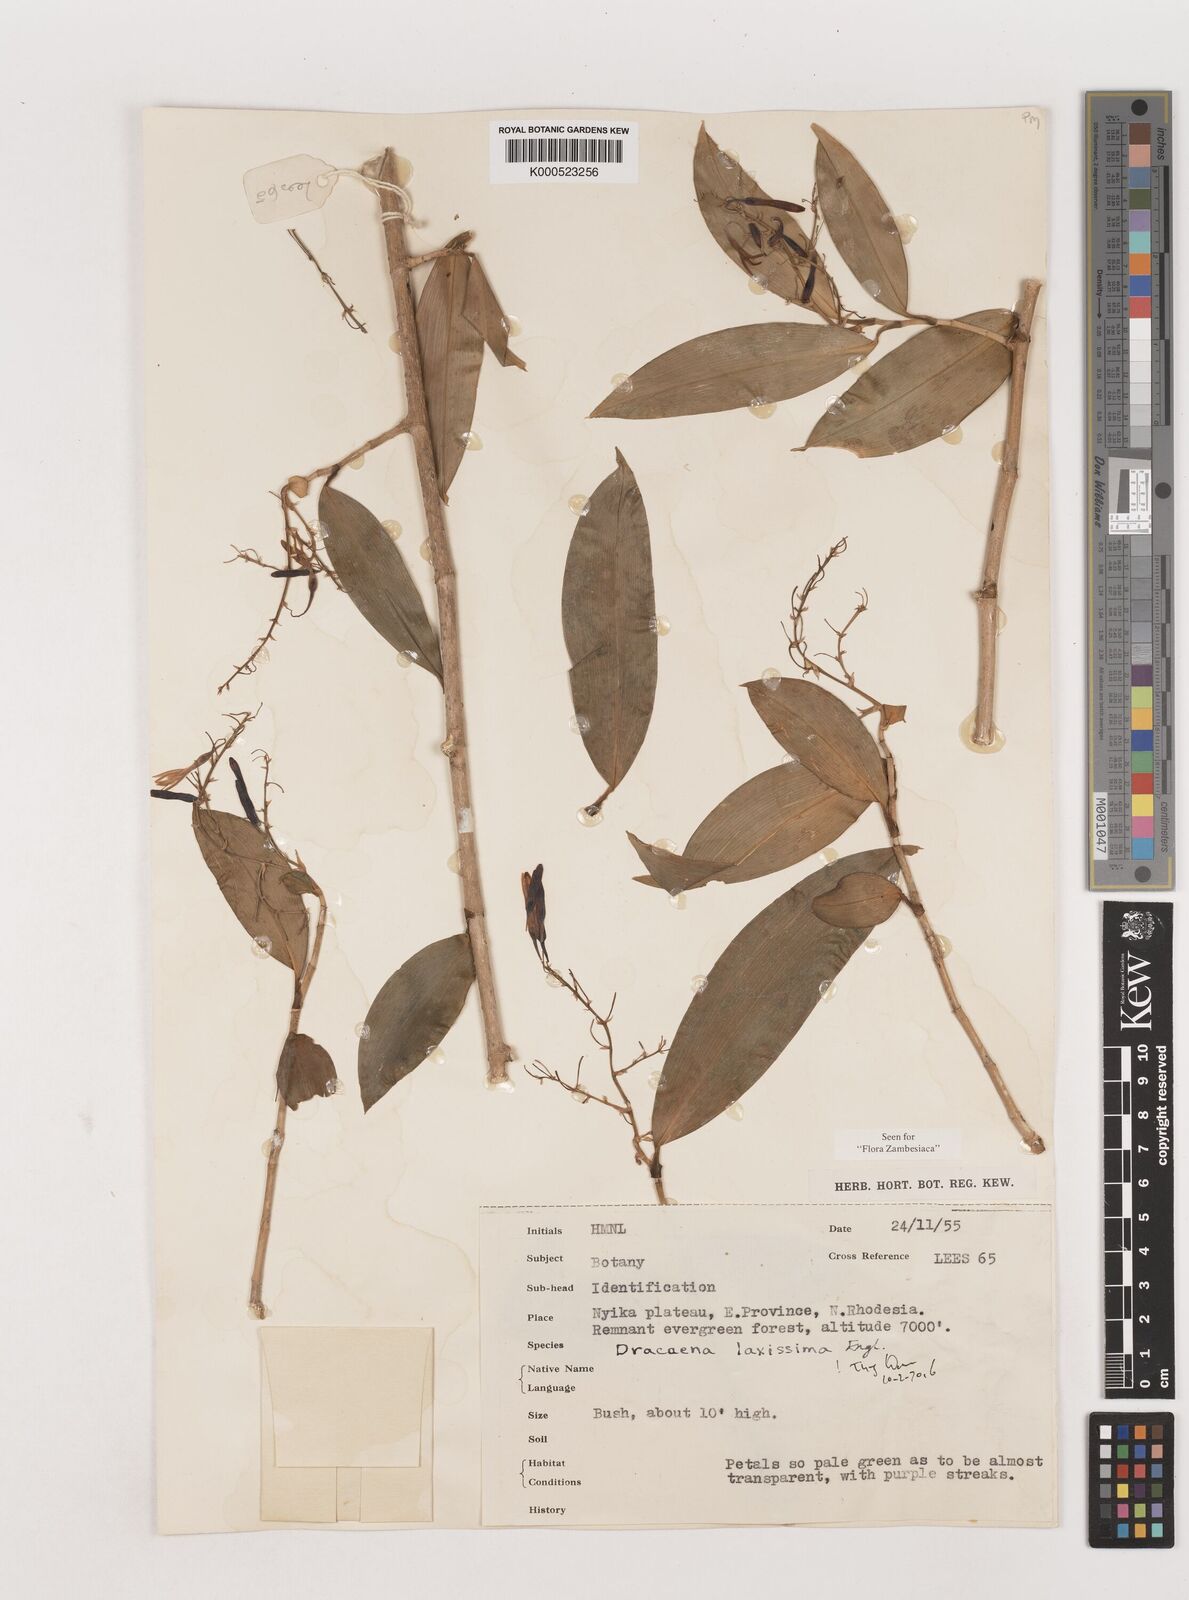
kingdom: Plantae
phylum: Tracheophyta
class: Liliopsida
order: Asparagales
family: Asparagaceae
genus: Dracaena
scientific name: Dracaena laxissima
